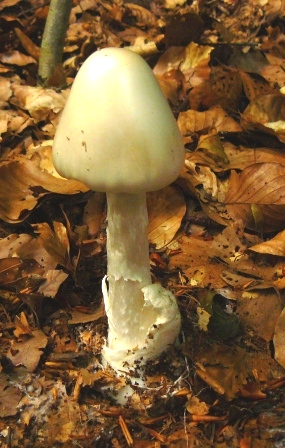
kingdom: Fungi
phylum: Basidiomycota
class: Agaricomycetes
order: Agaricales
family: Amanitaceae
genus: Amanita
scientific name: Amanita virosa
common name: snehvid fluesvamp
